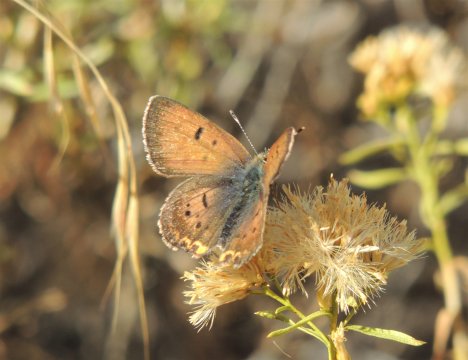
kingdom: Animalia
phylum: Arthropoda
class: Insecta
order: Lepidoptera
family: Sesiidae
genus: Sesia
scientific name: Sesia Lycaena helloides
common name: Purplish Copper
